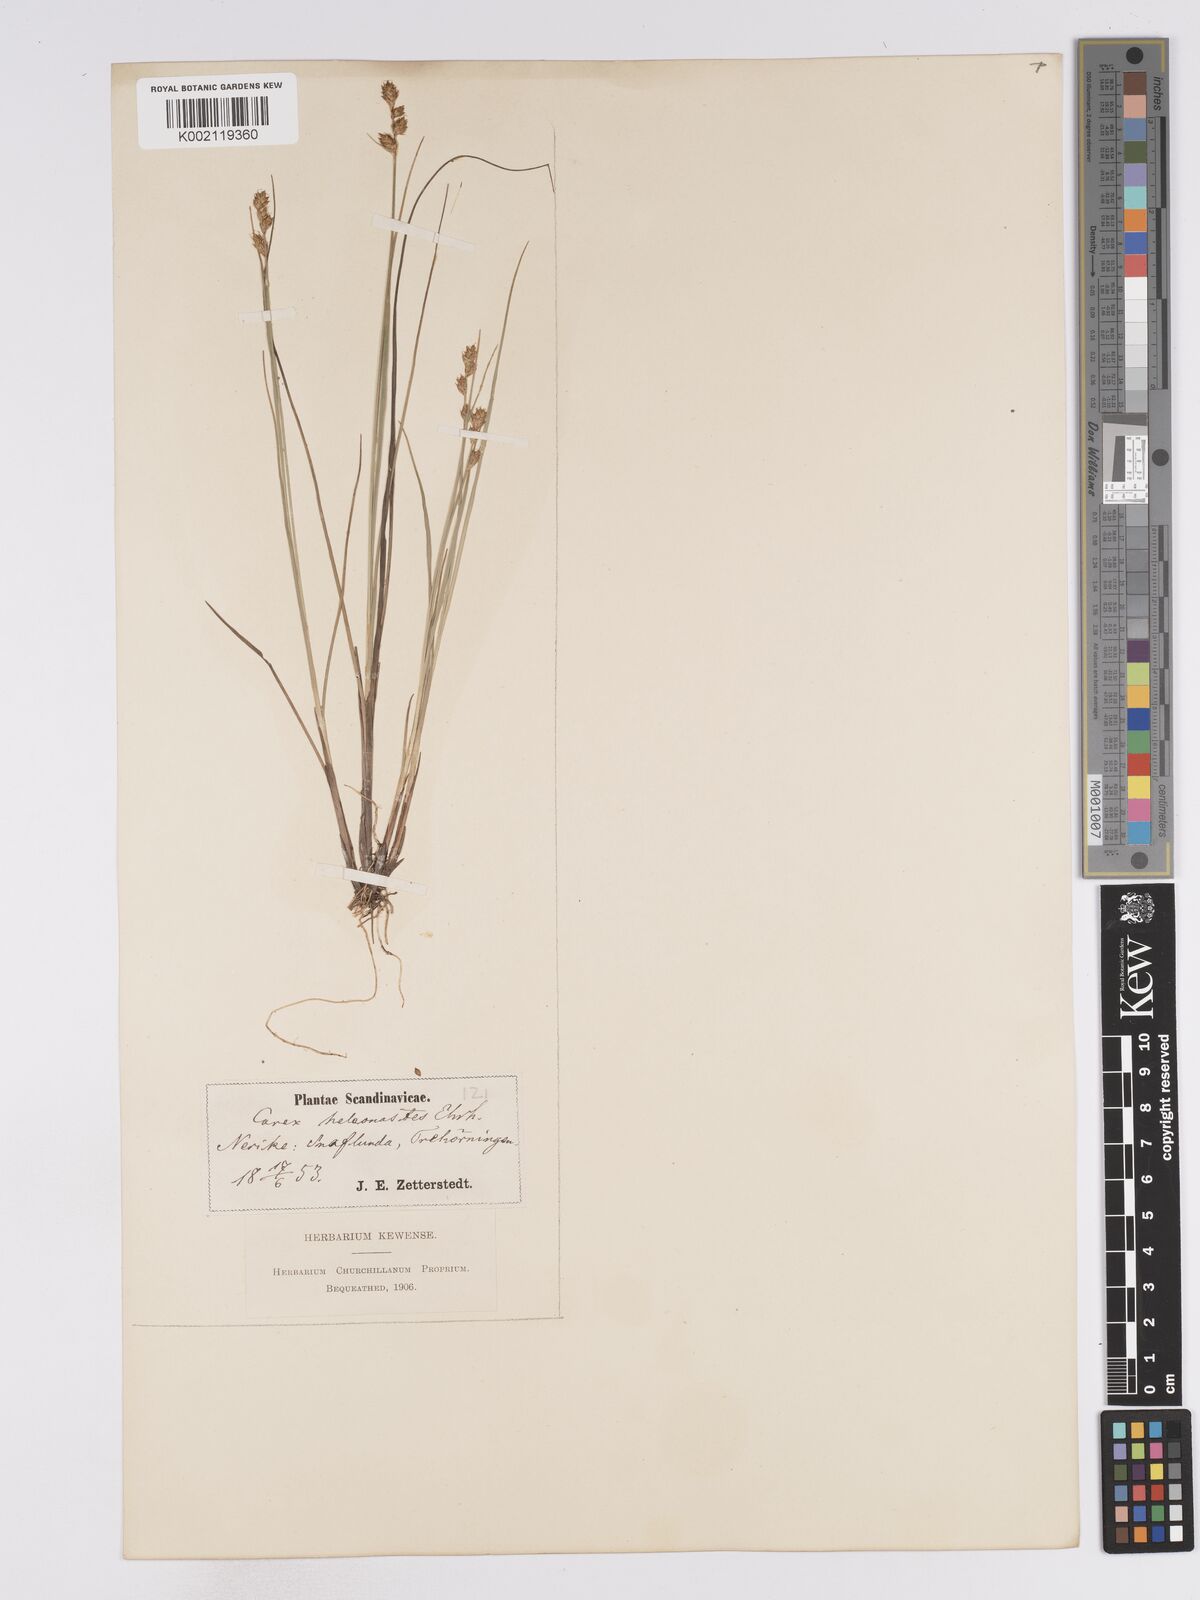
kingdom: Plantae
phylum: Tracheophyta
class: Liliopsida
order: Poales
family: Cyperaceae
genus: Carex
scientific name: Carex heleonastes
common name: Hudson bay sedge
